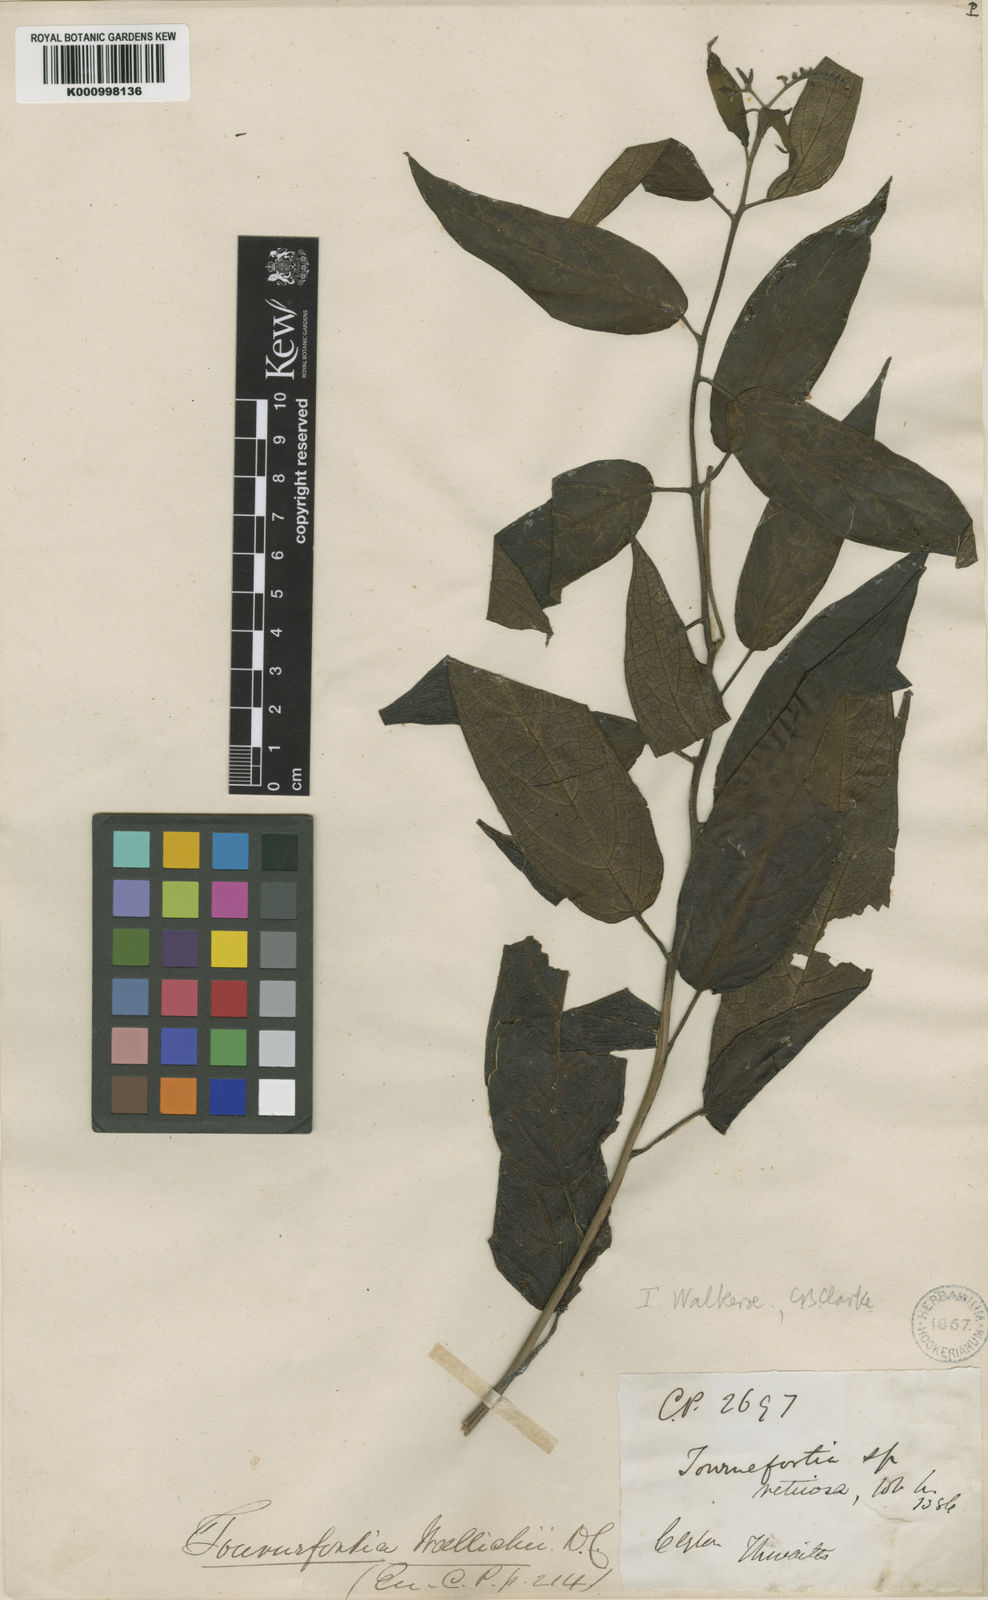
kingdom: Plantae
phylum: Tracheophyta
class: Magnoliopsida
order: Boraginales
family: Heliotropiaceae
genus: Tournefortia
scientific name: Tournefortia walkerae
